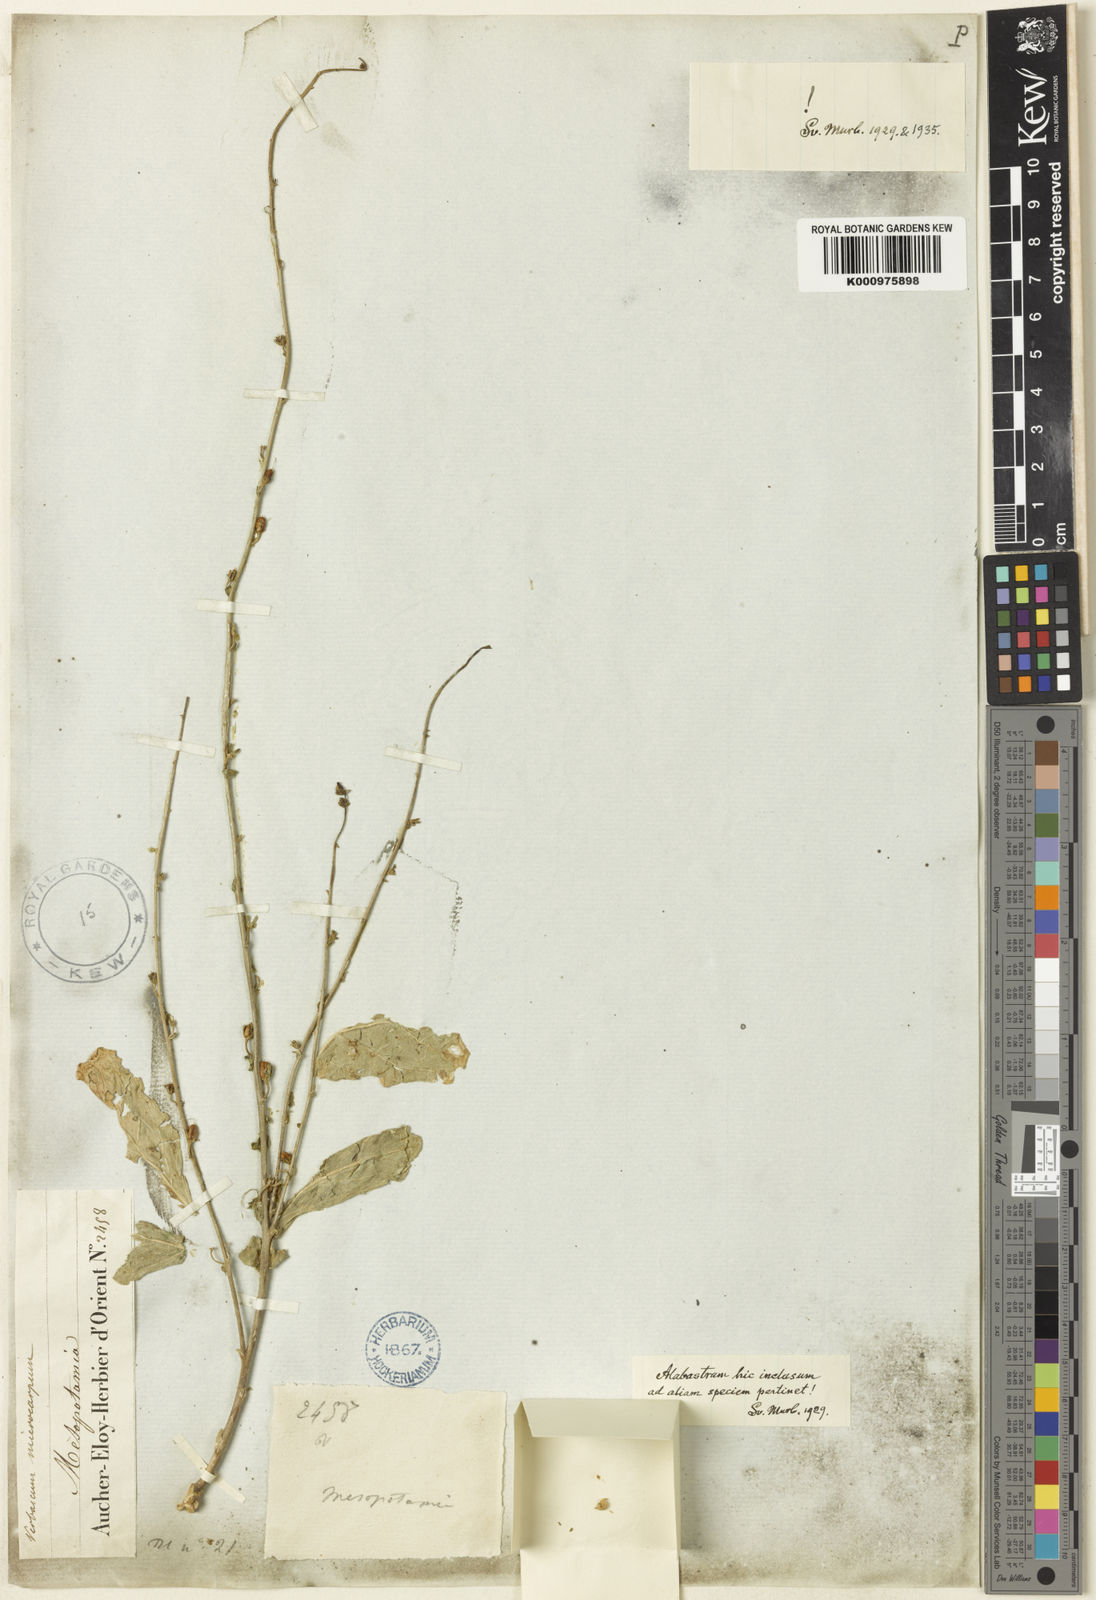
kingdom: Plantae
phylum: Tracheophyta
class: Magnoliopsida
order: Lamiales
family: Scrophulariaceae
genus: Verbascum
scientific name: Verbascum laetum
